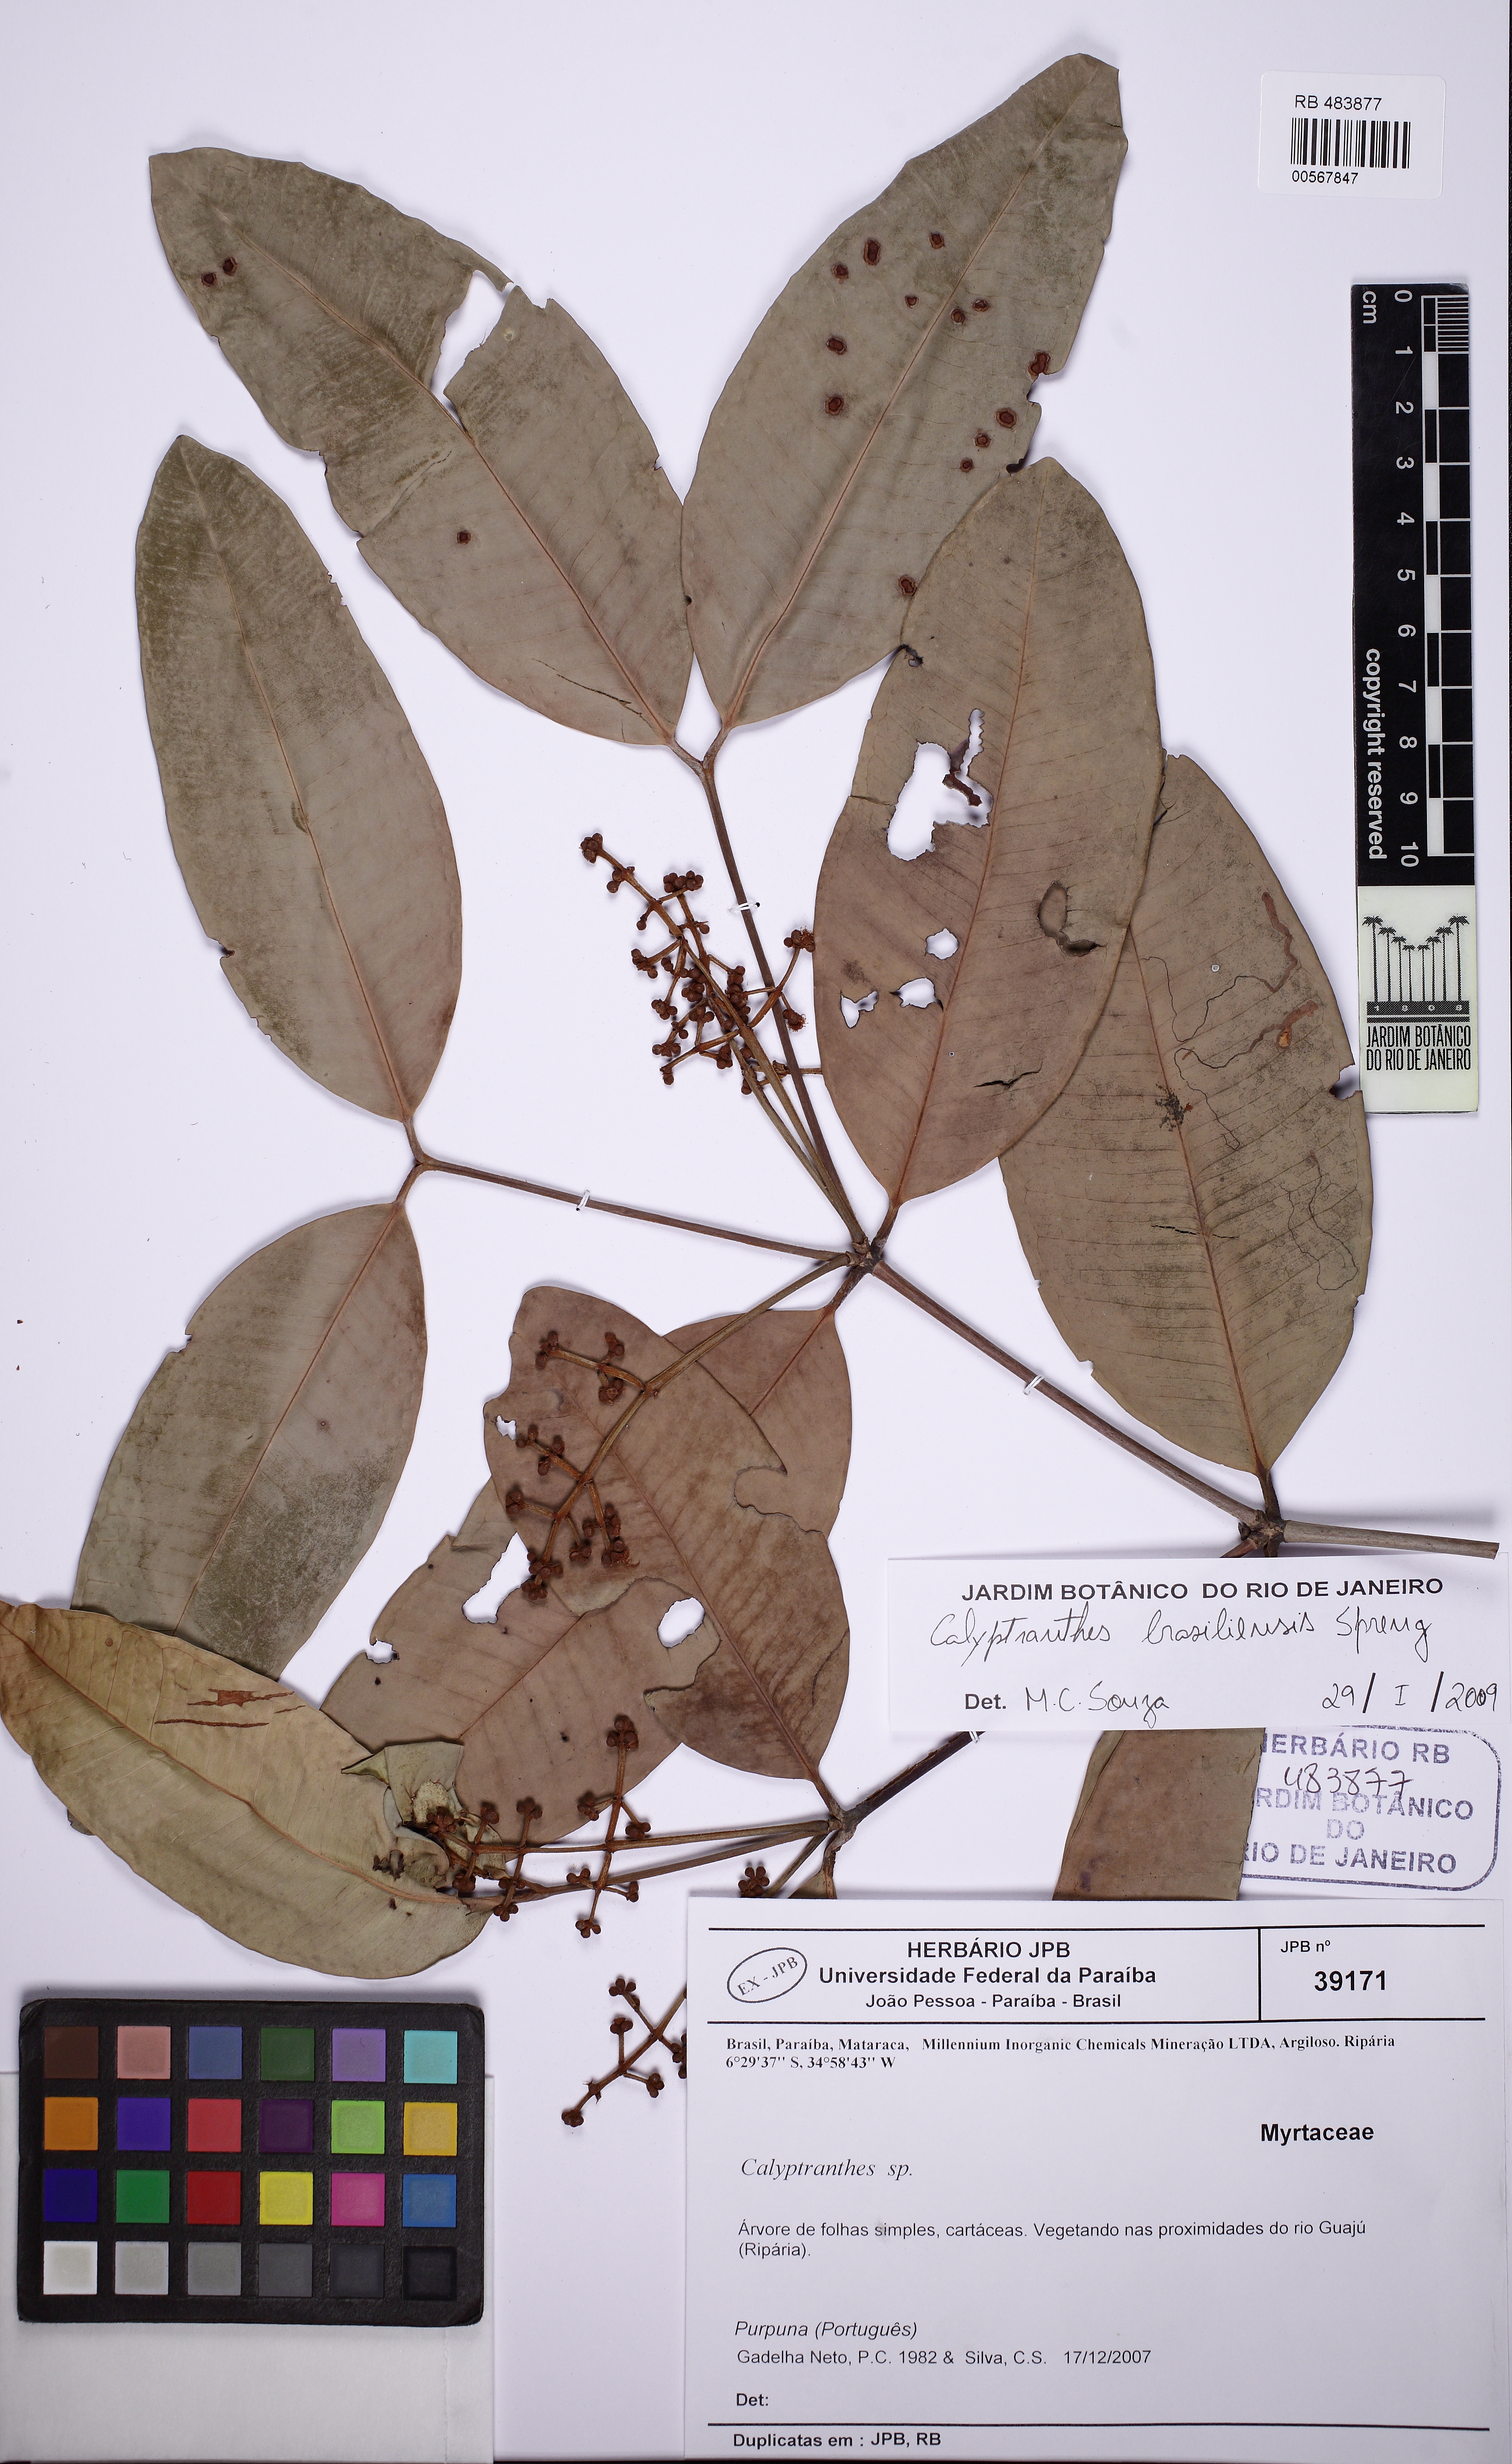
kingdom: Plantae
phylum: Tracheophyta
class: Magnoliopsida
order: Myrtales
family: Myrtaceae
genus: Myrcia
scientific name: Myrcia neobrasiliensis
